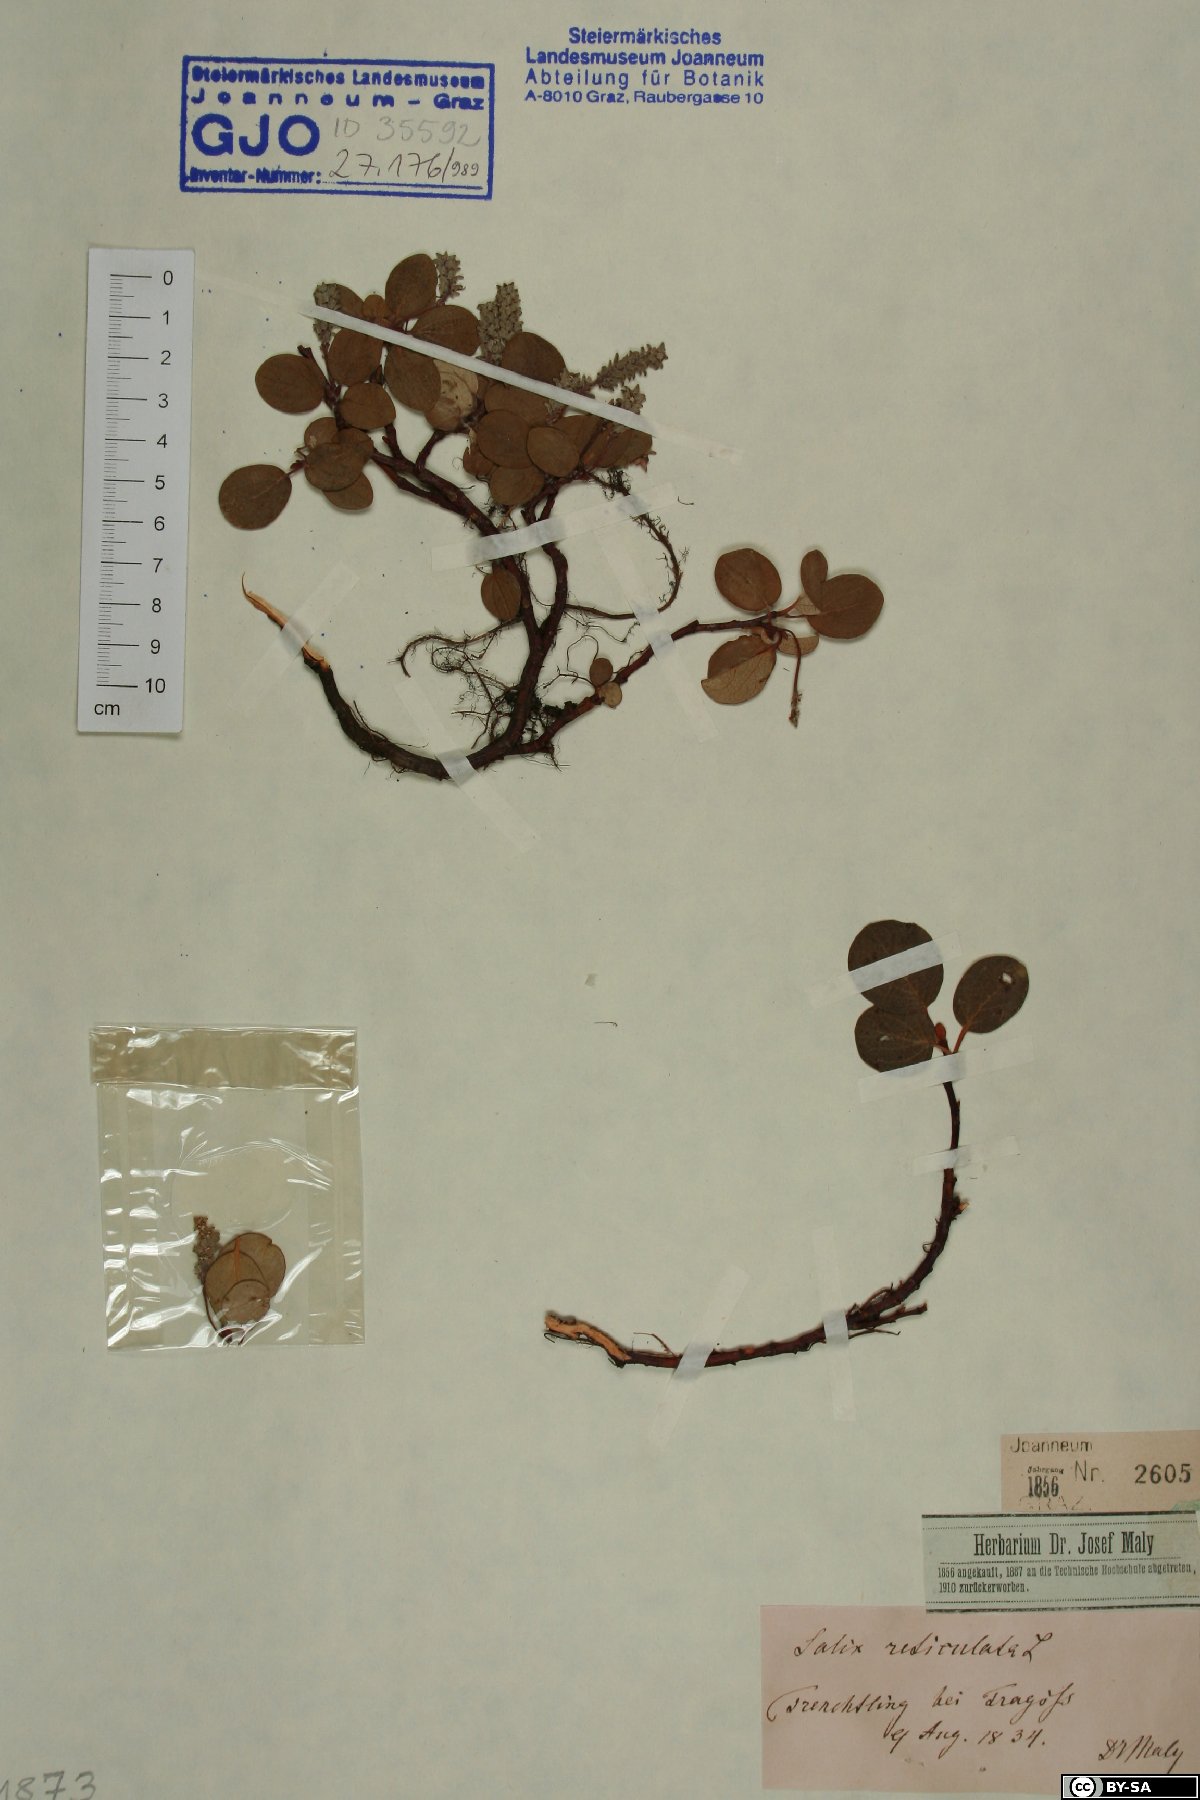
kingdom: Plantae
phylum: Tracheophyta
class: Magnoliopsida
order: Malpighiales
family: Salicaceae
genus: Salix
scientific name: Salix reticulata
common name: Net-leaved willow
